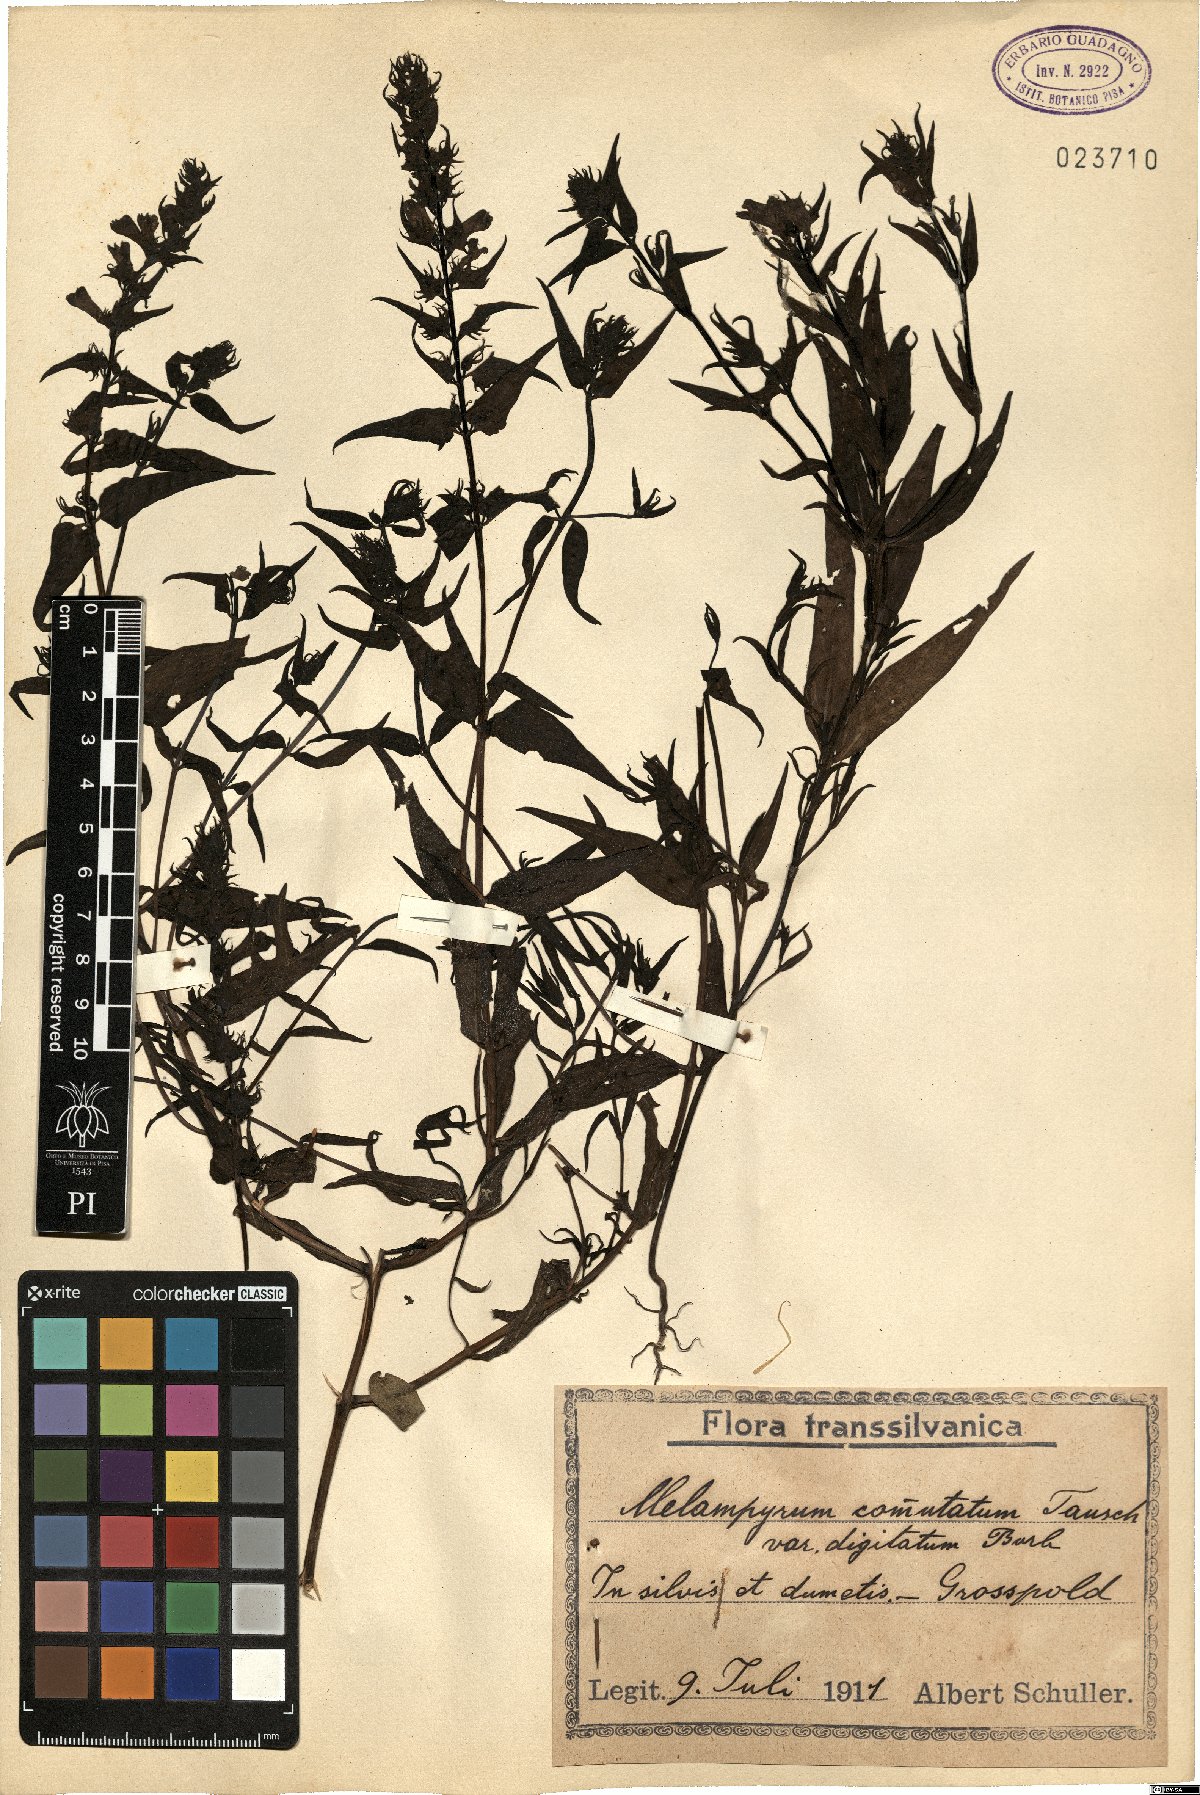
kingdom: Plantae
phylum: Tracheophyta
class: Magnoliopsida
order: Lamiales
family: Orobanchaceae
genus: Melampyrum
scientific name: Melampyrum pratense
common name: Common cow-wheat
